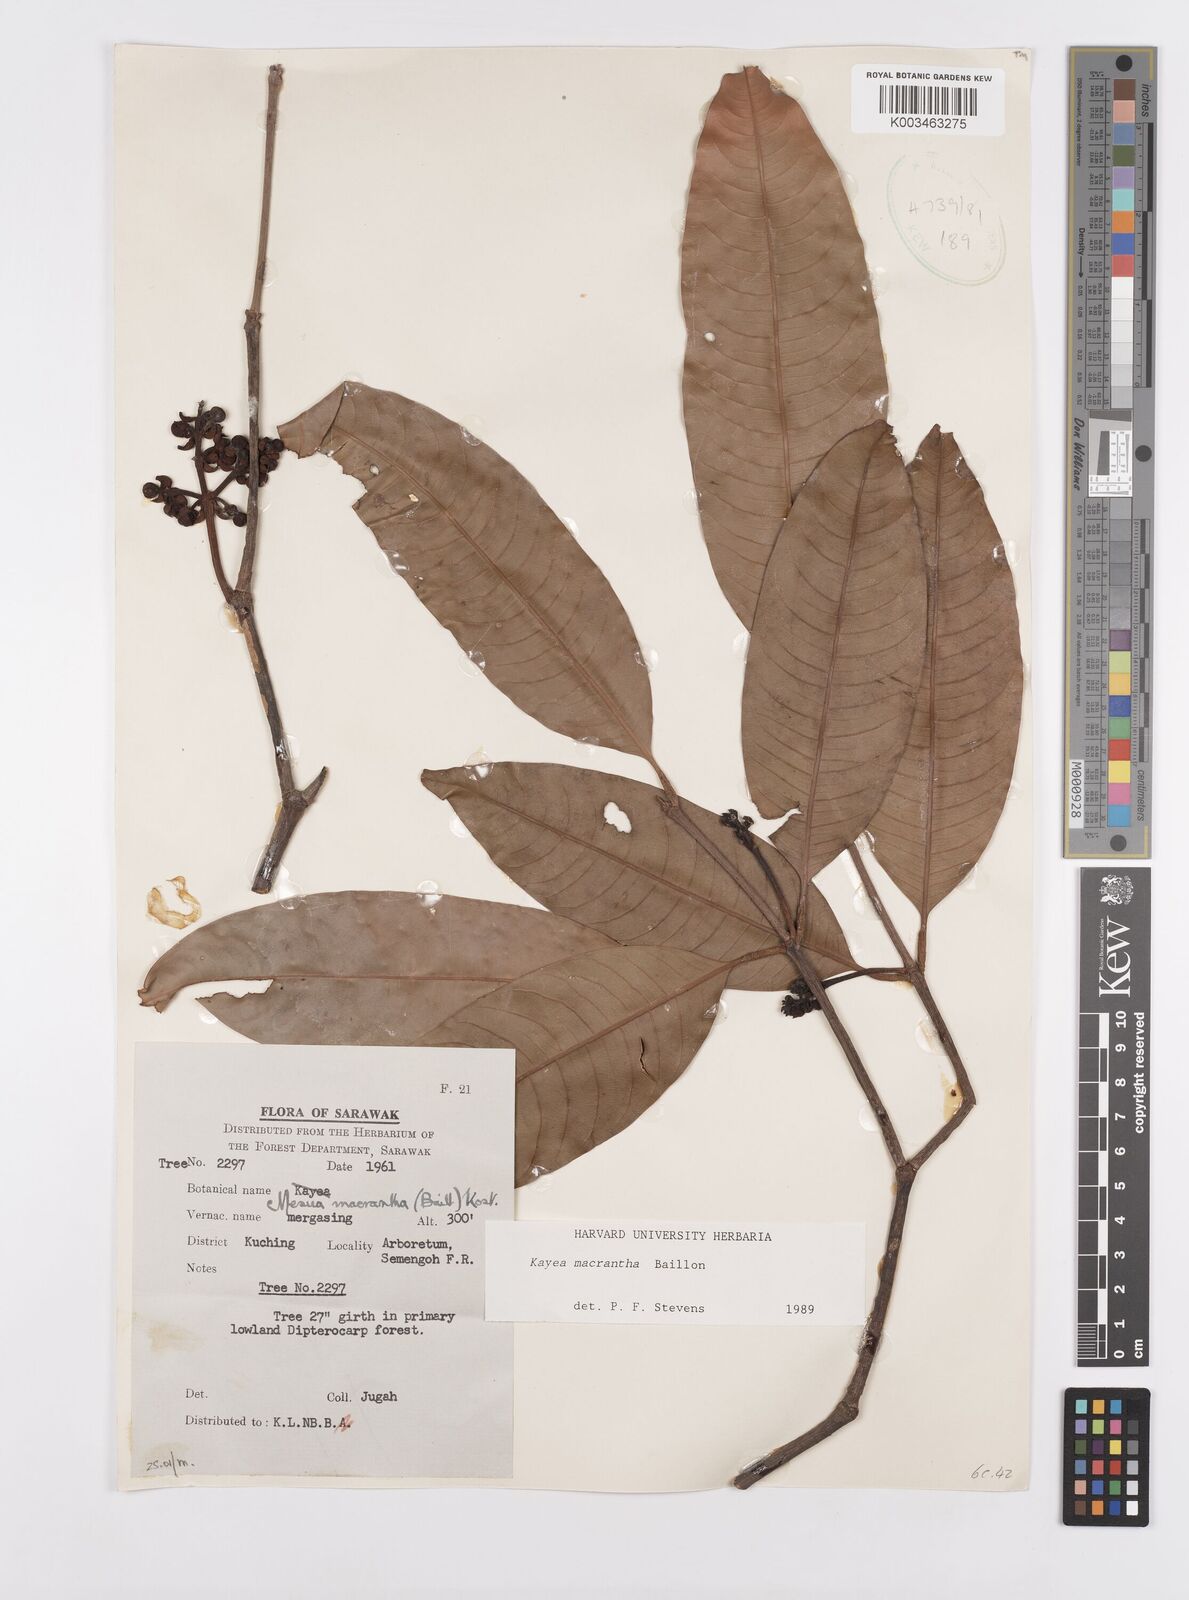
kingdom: Plantae
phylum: Tracheophyta
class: Magnoliopsida
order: Malpighiales
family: Calophyllaceae
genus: Kayea
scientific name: Kayea macrantha
